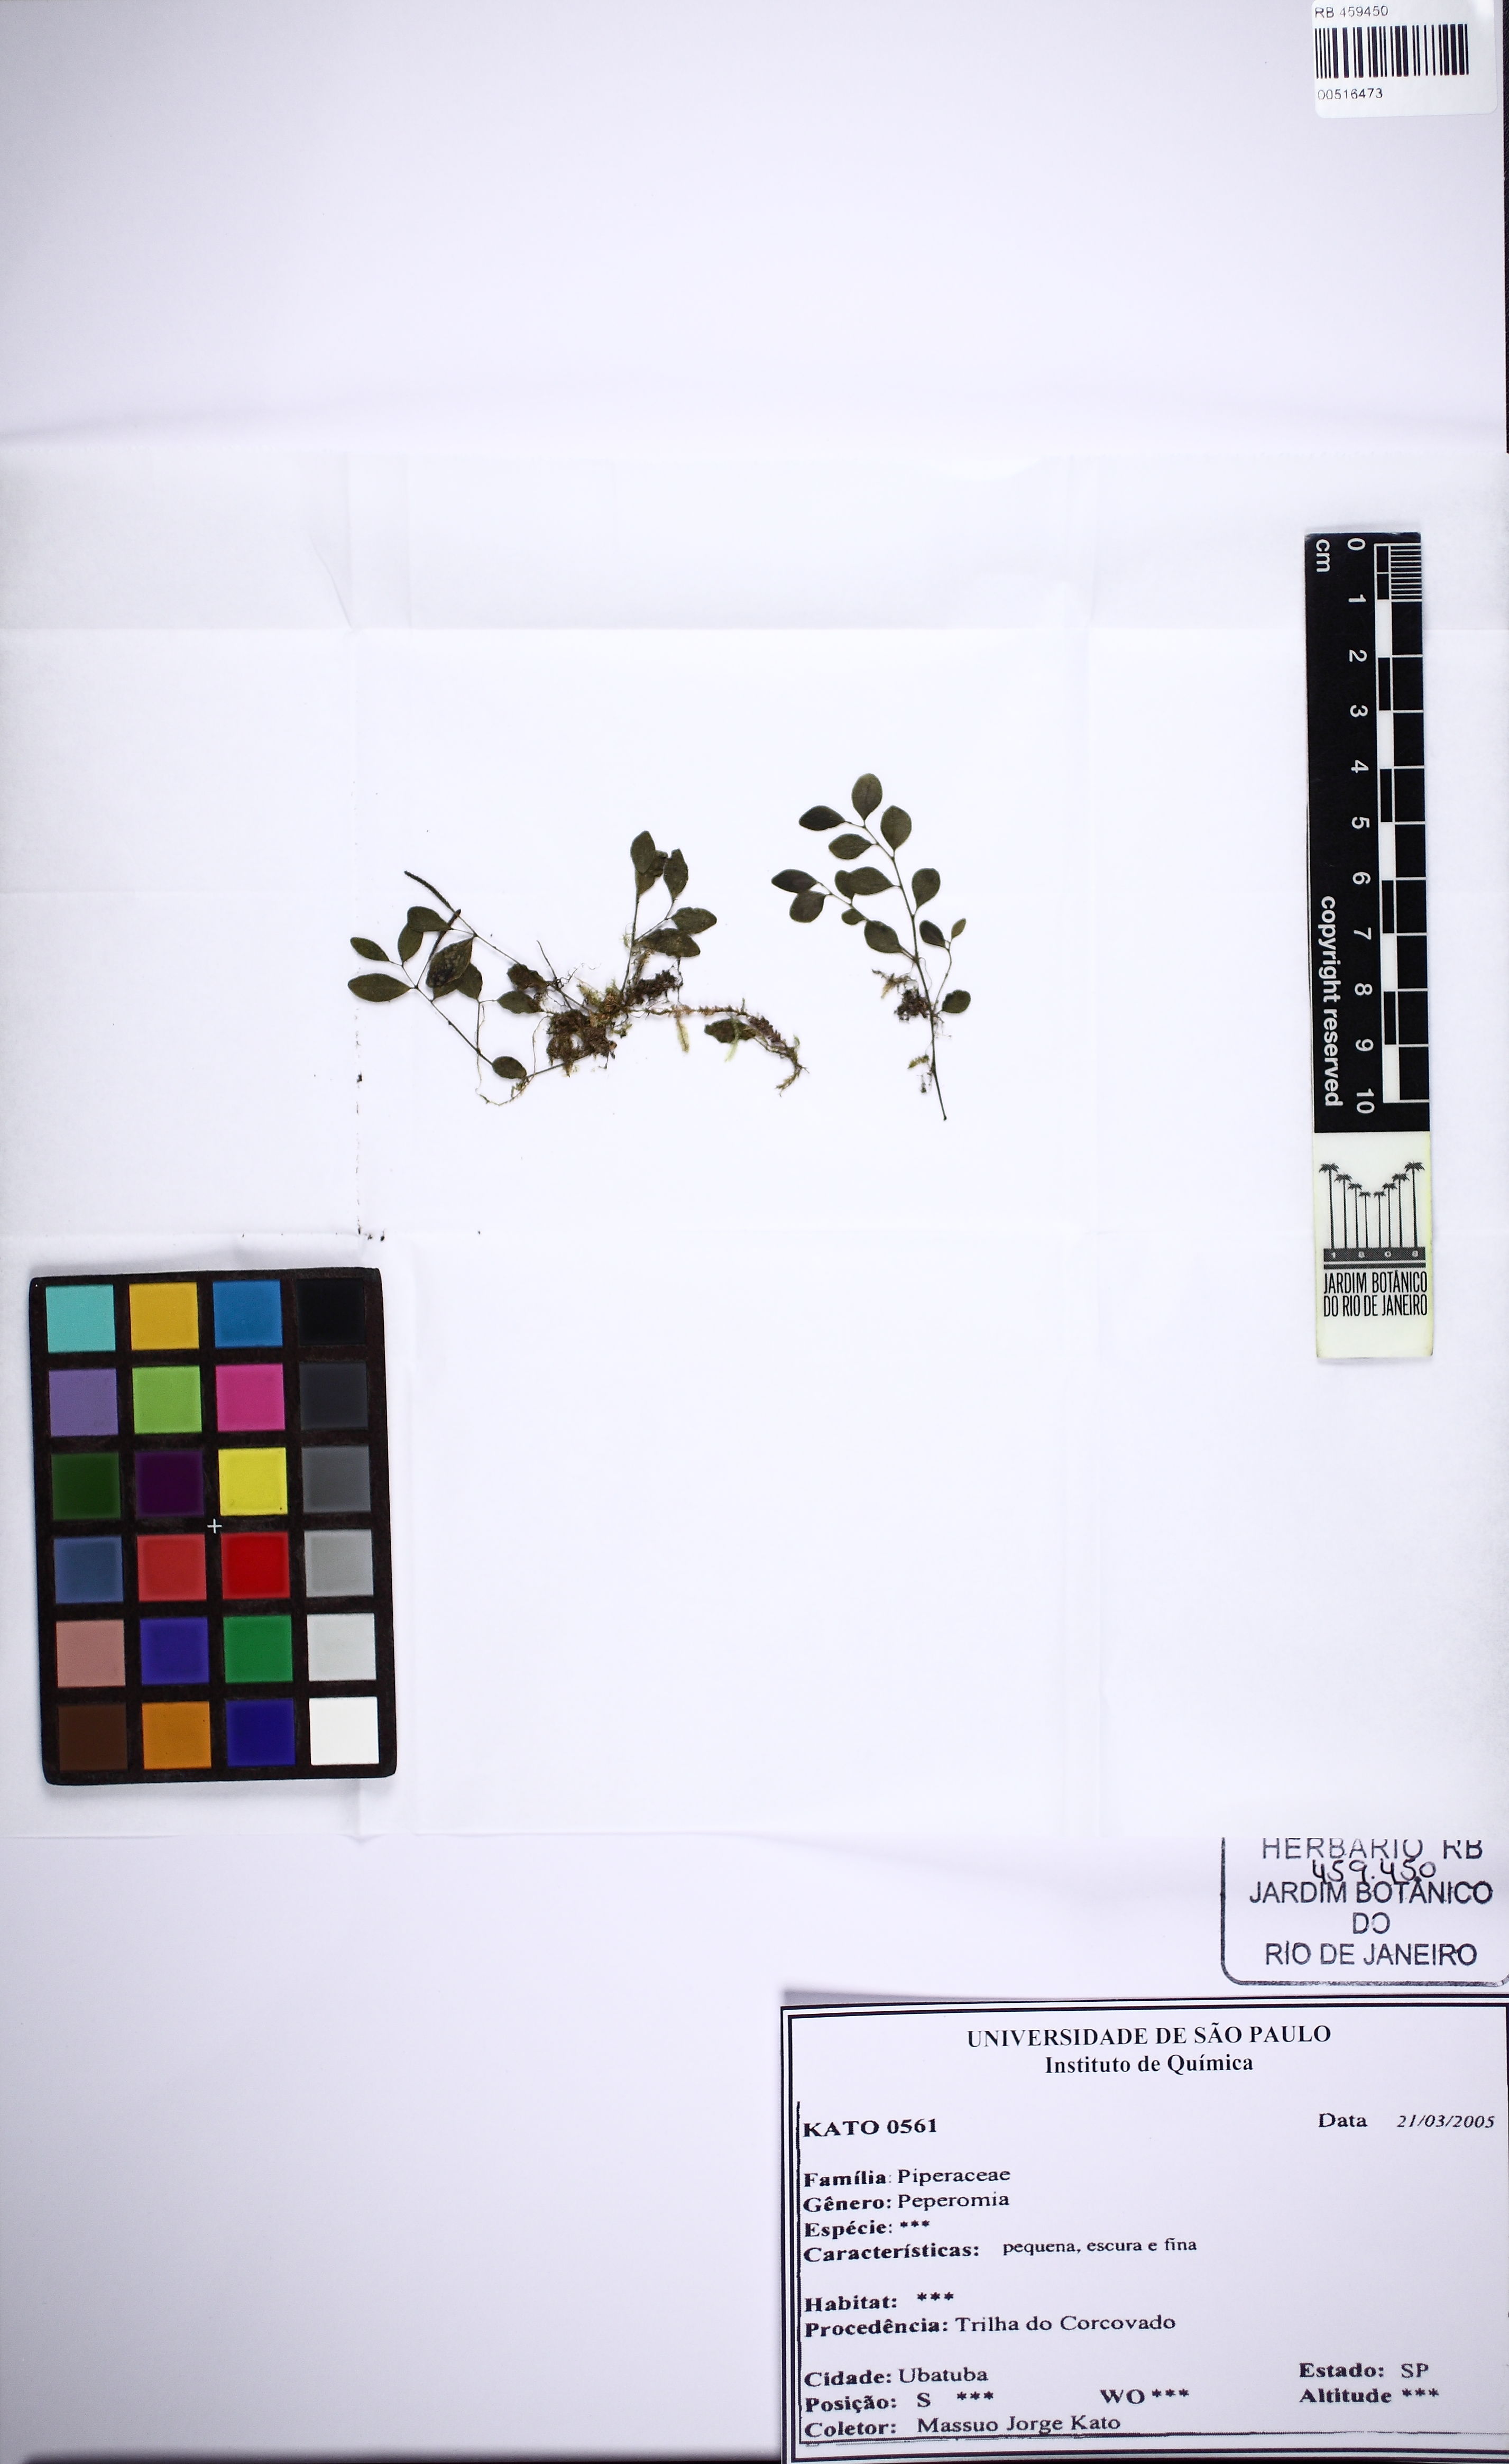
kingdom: Plantae
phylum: Tracheophyta
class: Magnoliopsida
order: Piperales
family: Piperaceae
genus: Peperomia
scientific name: Peperomia pseudoestrellensis
